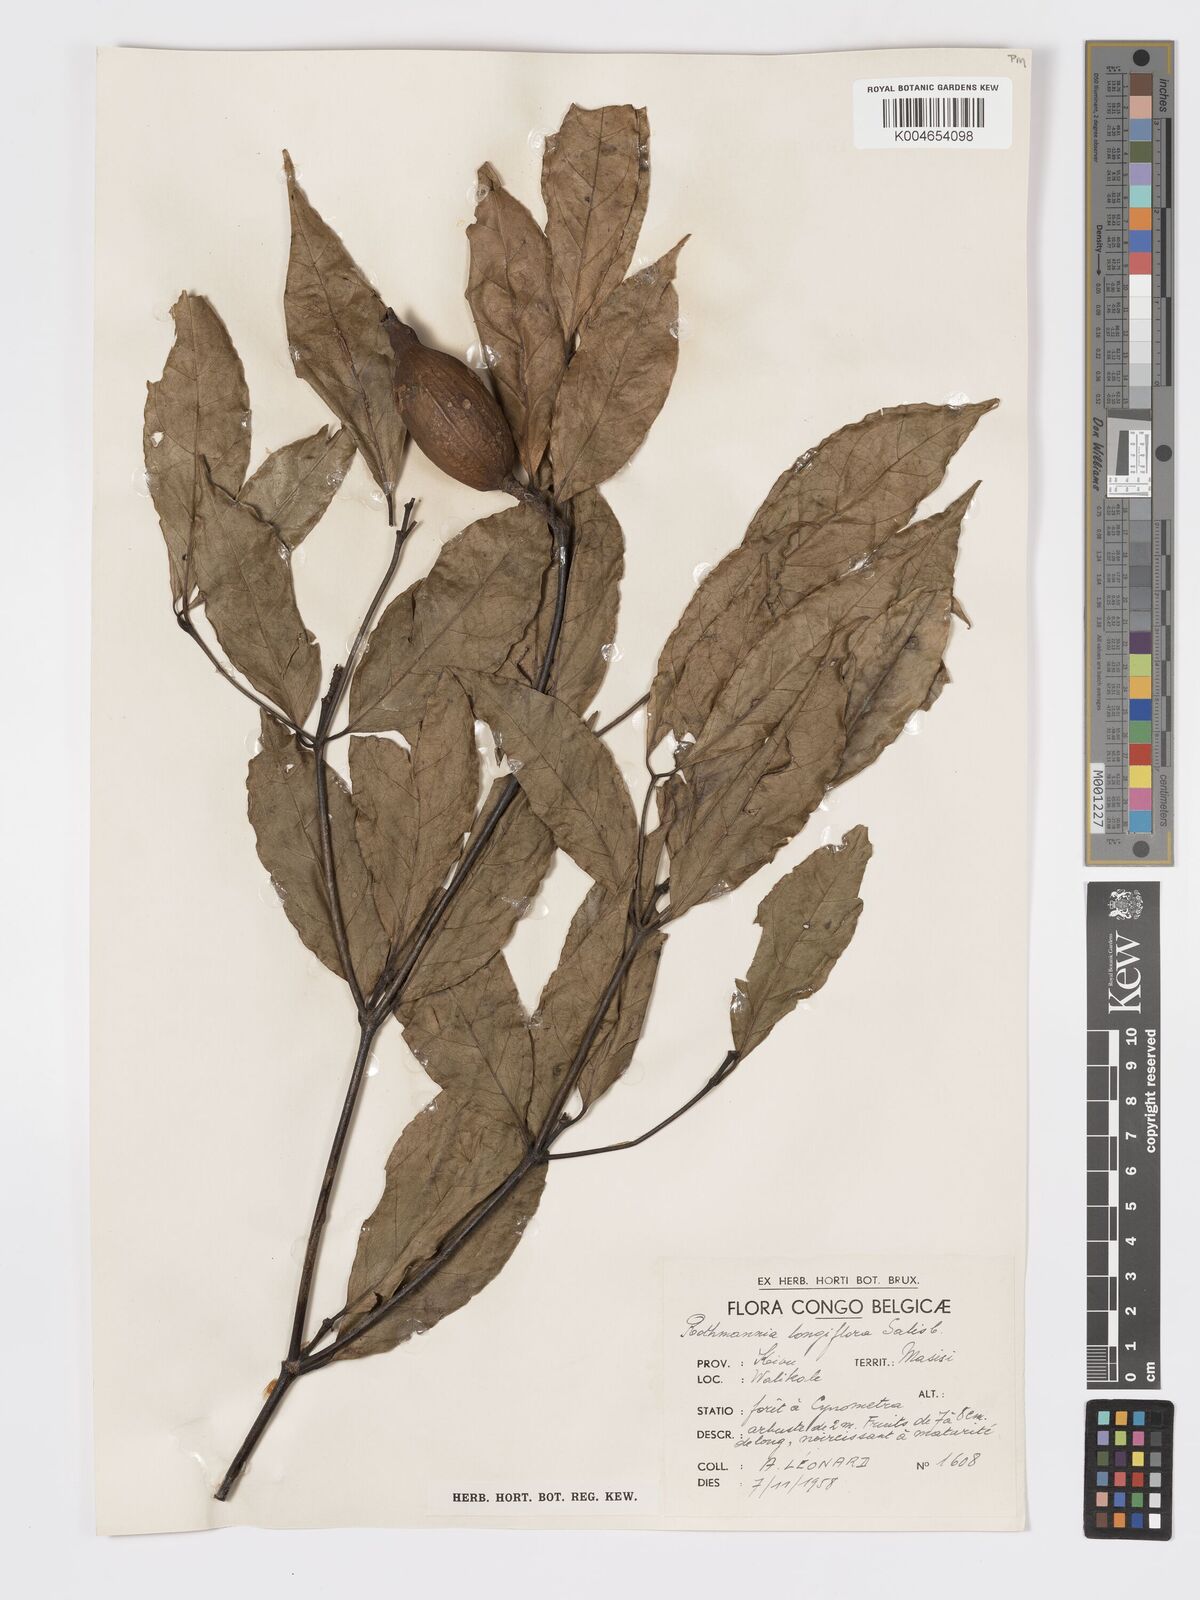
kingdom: Plantae
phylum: Tracheophyta
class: Magnoliopsida
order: Gentianales
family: Rubiaceae
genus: Rothmannia
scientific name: Rothmannia longiflora
